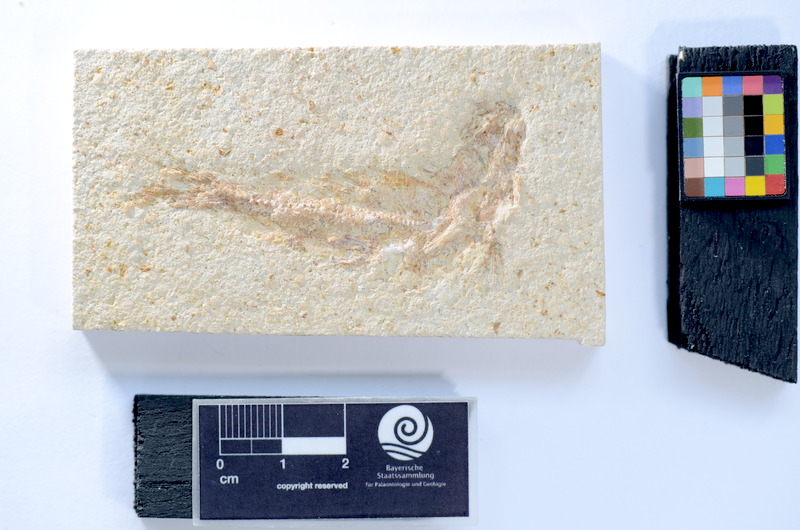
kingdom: Animalia
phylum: Chordata
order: Salmoniformes
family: Orthogonikleithridae
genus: Leptolepides
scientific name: Leptolepides sprattiformis
